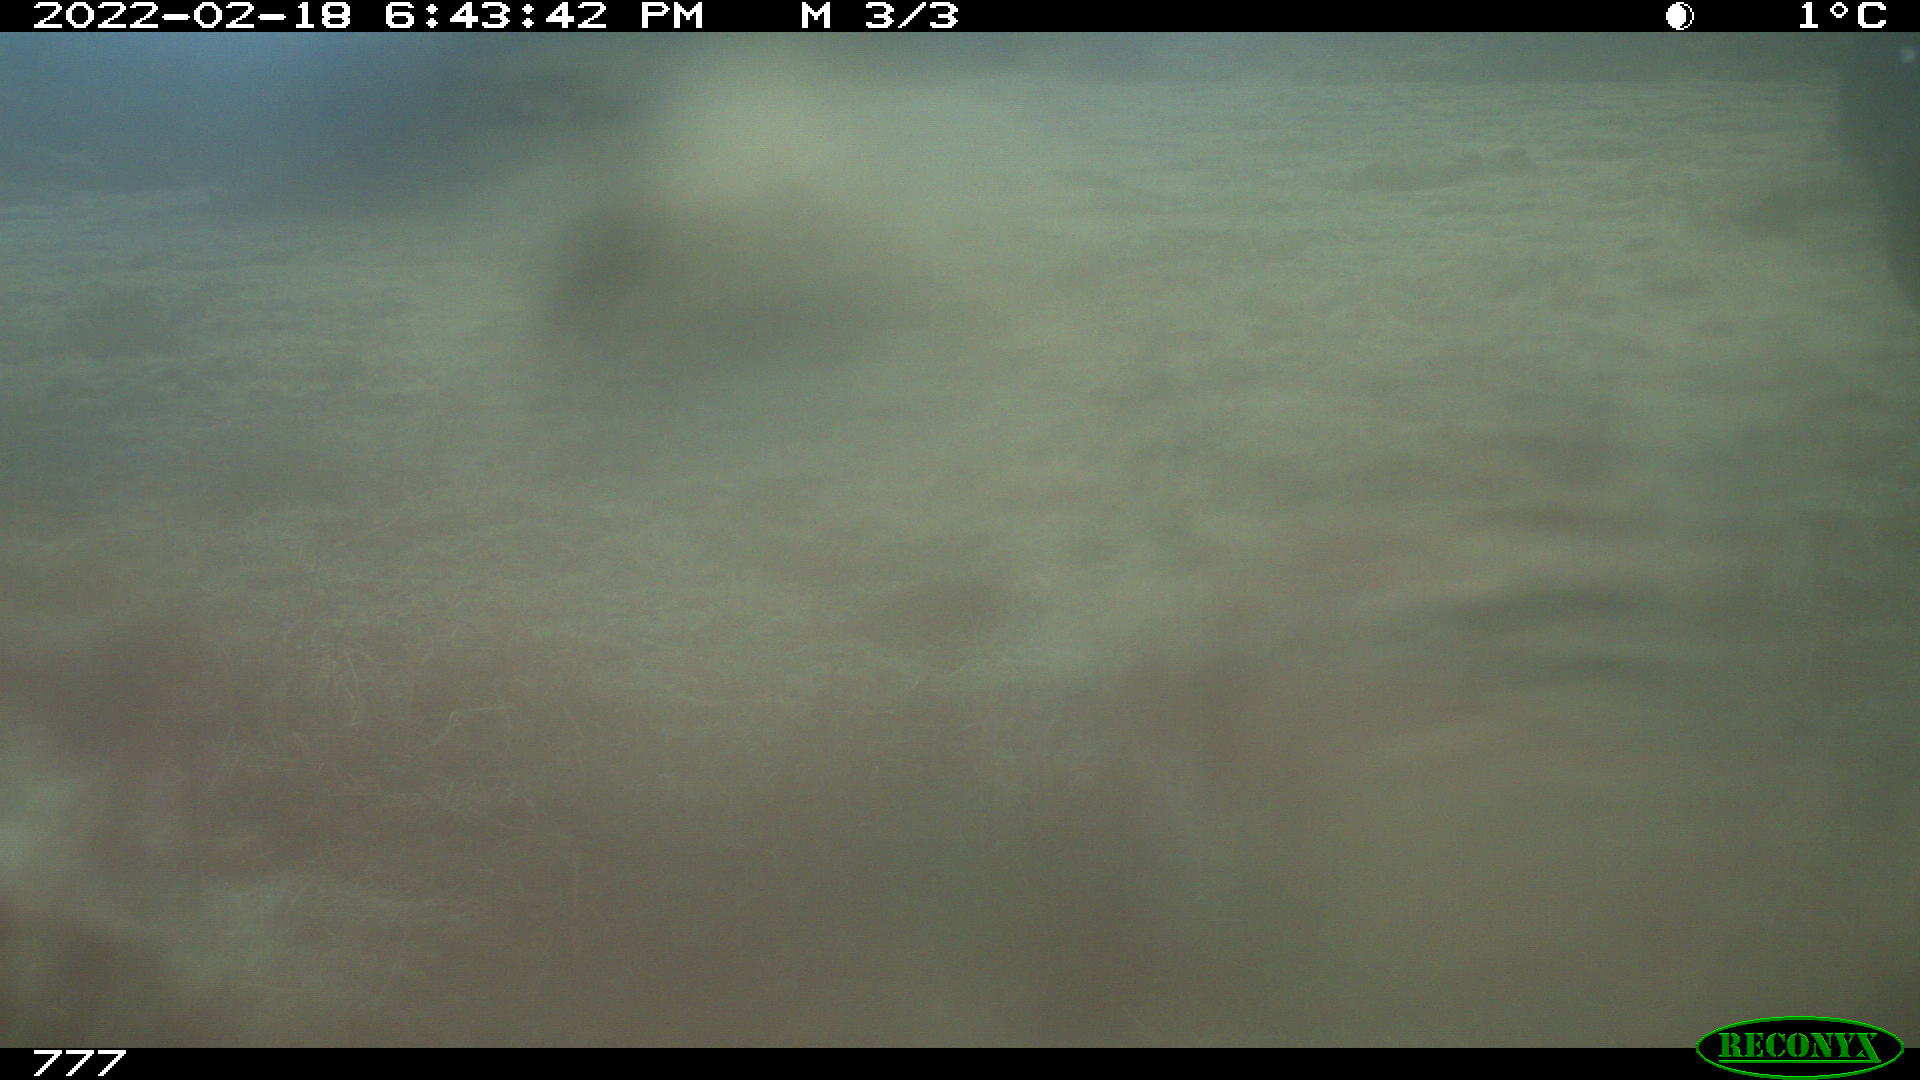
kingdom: Animalia
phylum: Chordata
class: Mammalia
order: Perissodactyla
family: Equidae
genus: Equus
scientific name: Equus caballus
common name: Horse
